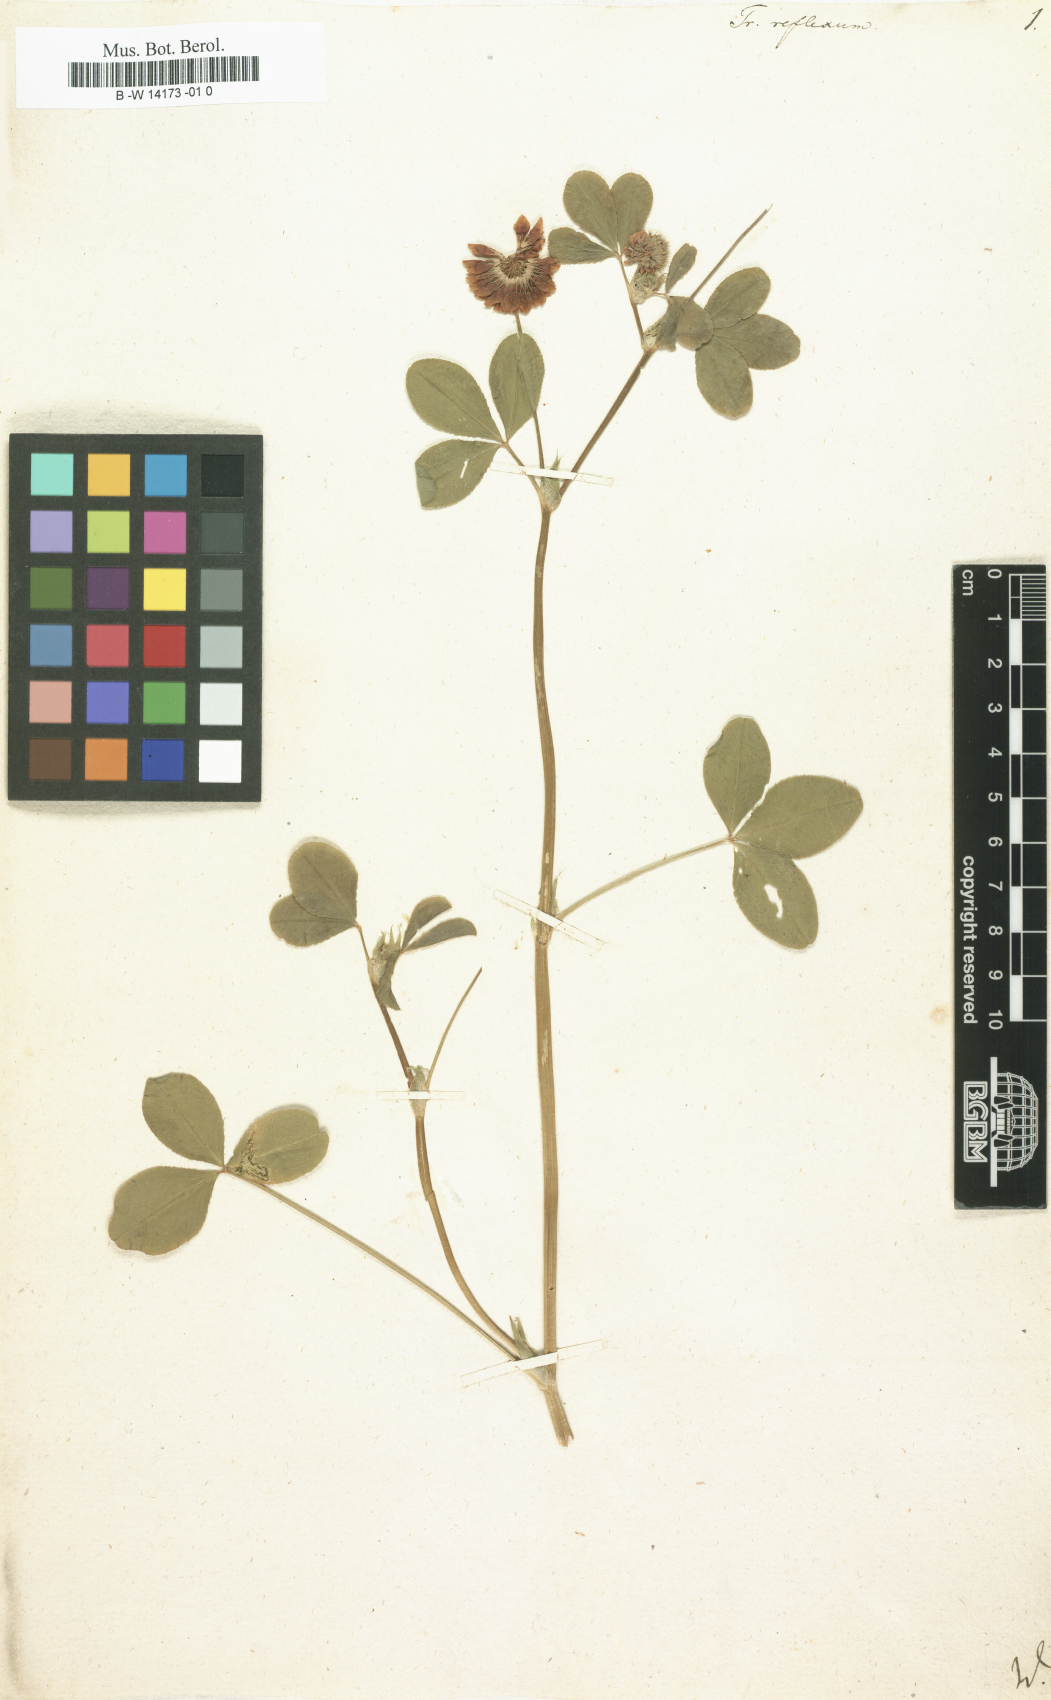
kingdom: Plantae
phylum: Tracheophyta
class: Magnoliopsida
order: Fabales
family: Fabaceae
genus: Trifolium
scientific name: Trifolium reflexum
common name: Buffalo clover
